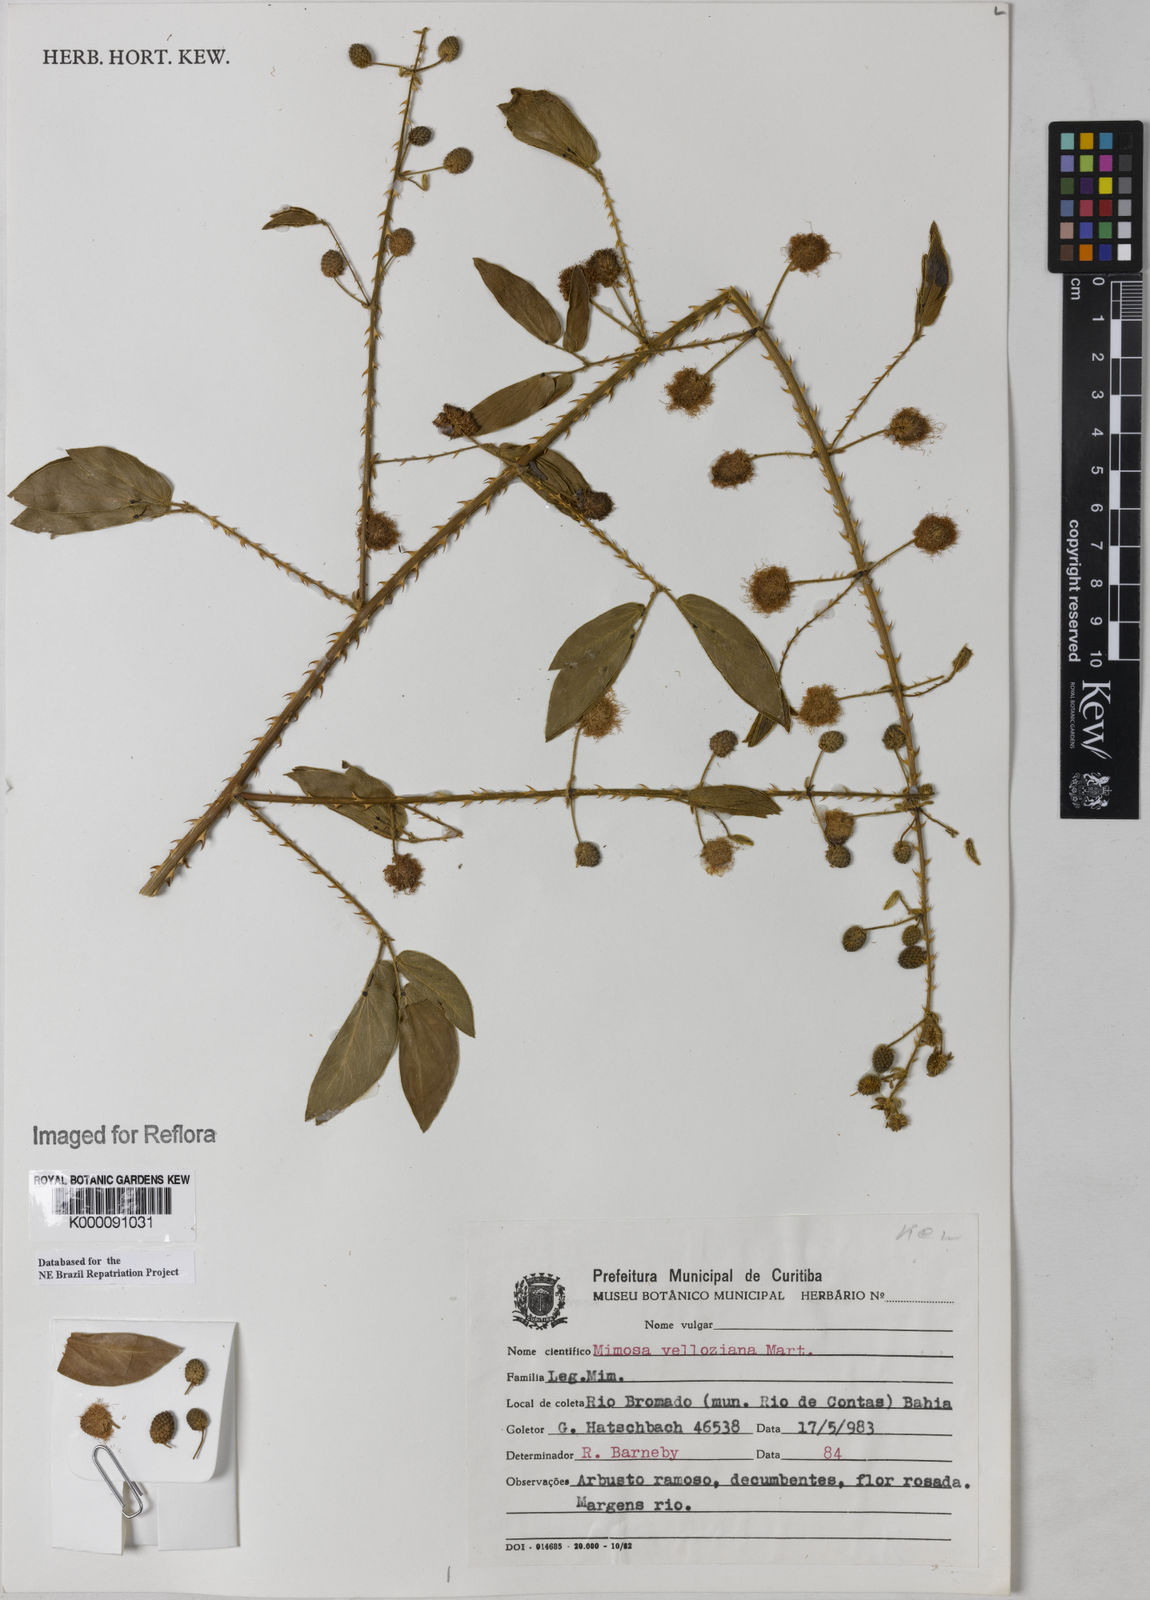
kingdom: Plantae
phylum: Tracheophyta
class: Magnoliopsida
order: Fabales
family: Fabaceae
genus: Mimosa
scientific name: Mimosa velloziana
